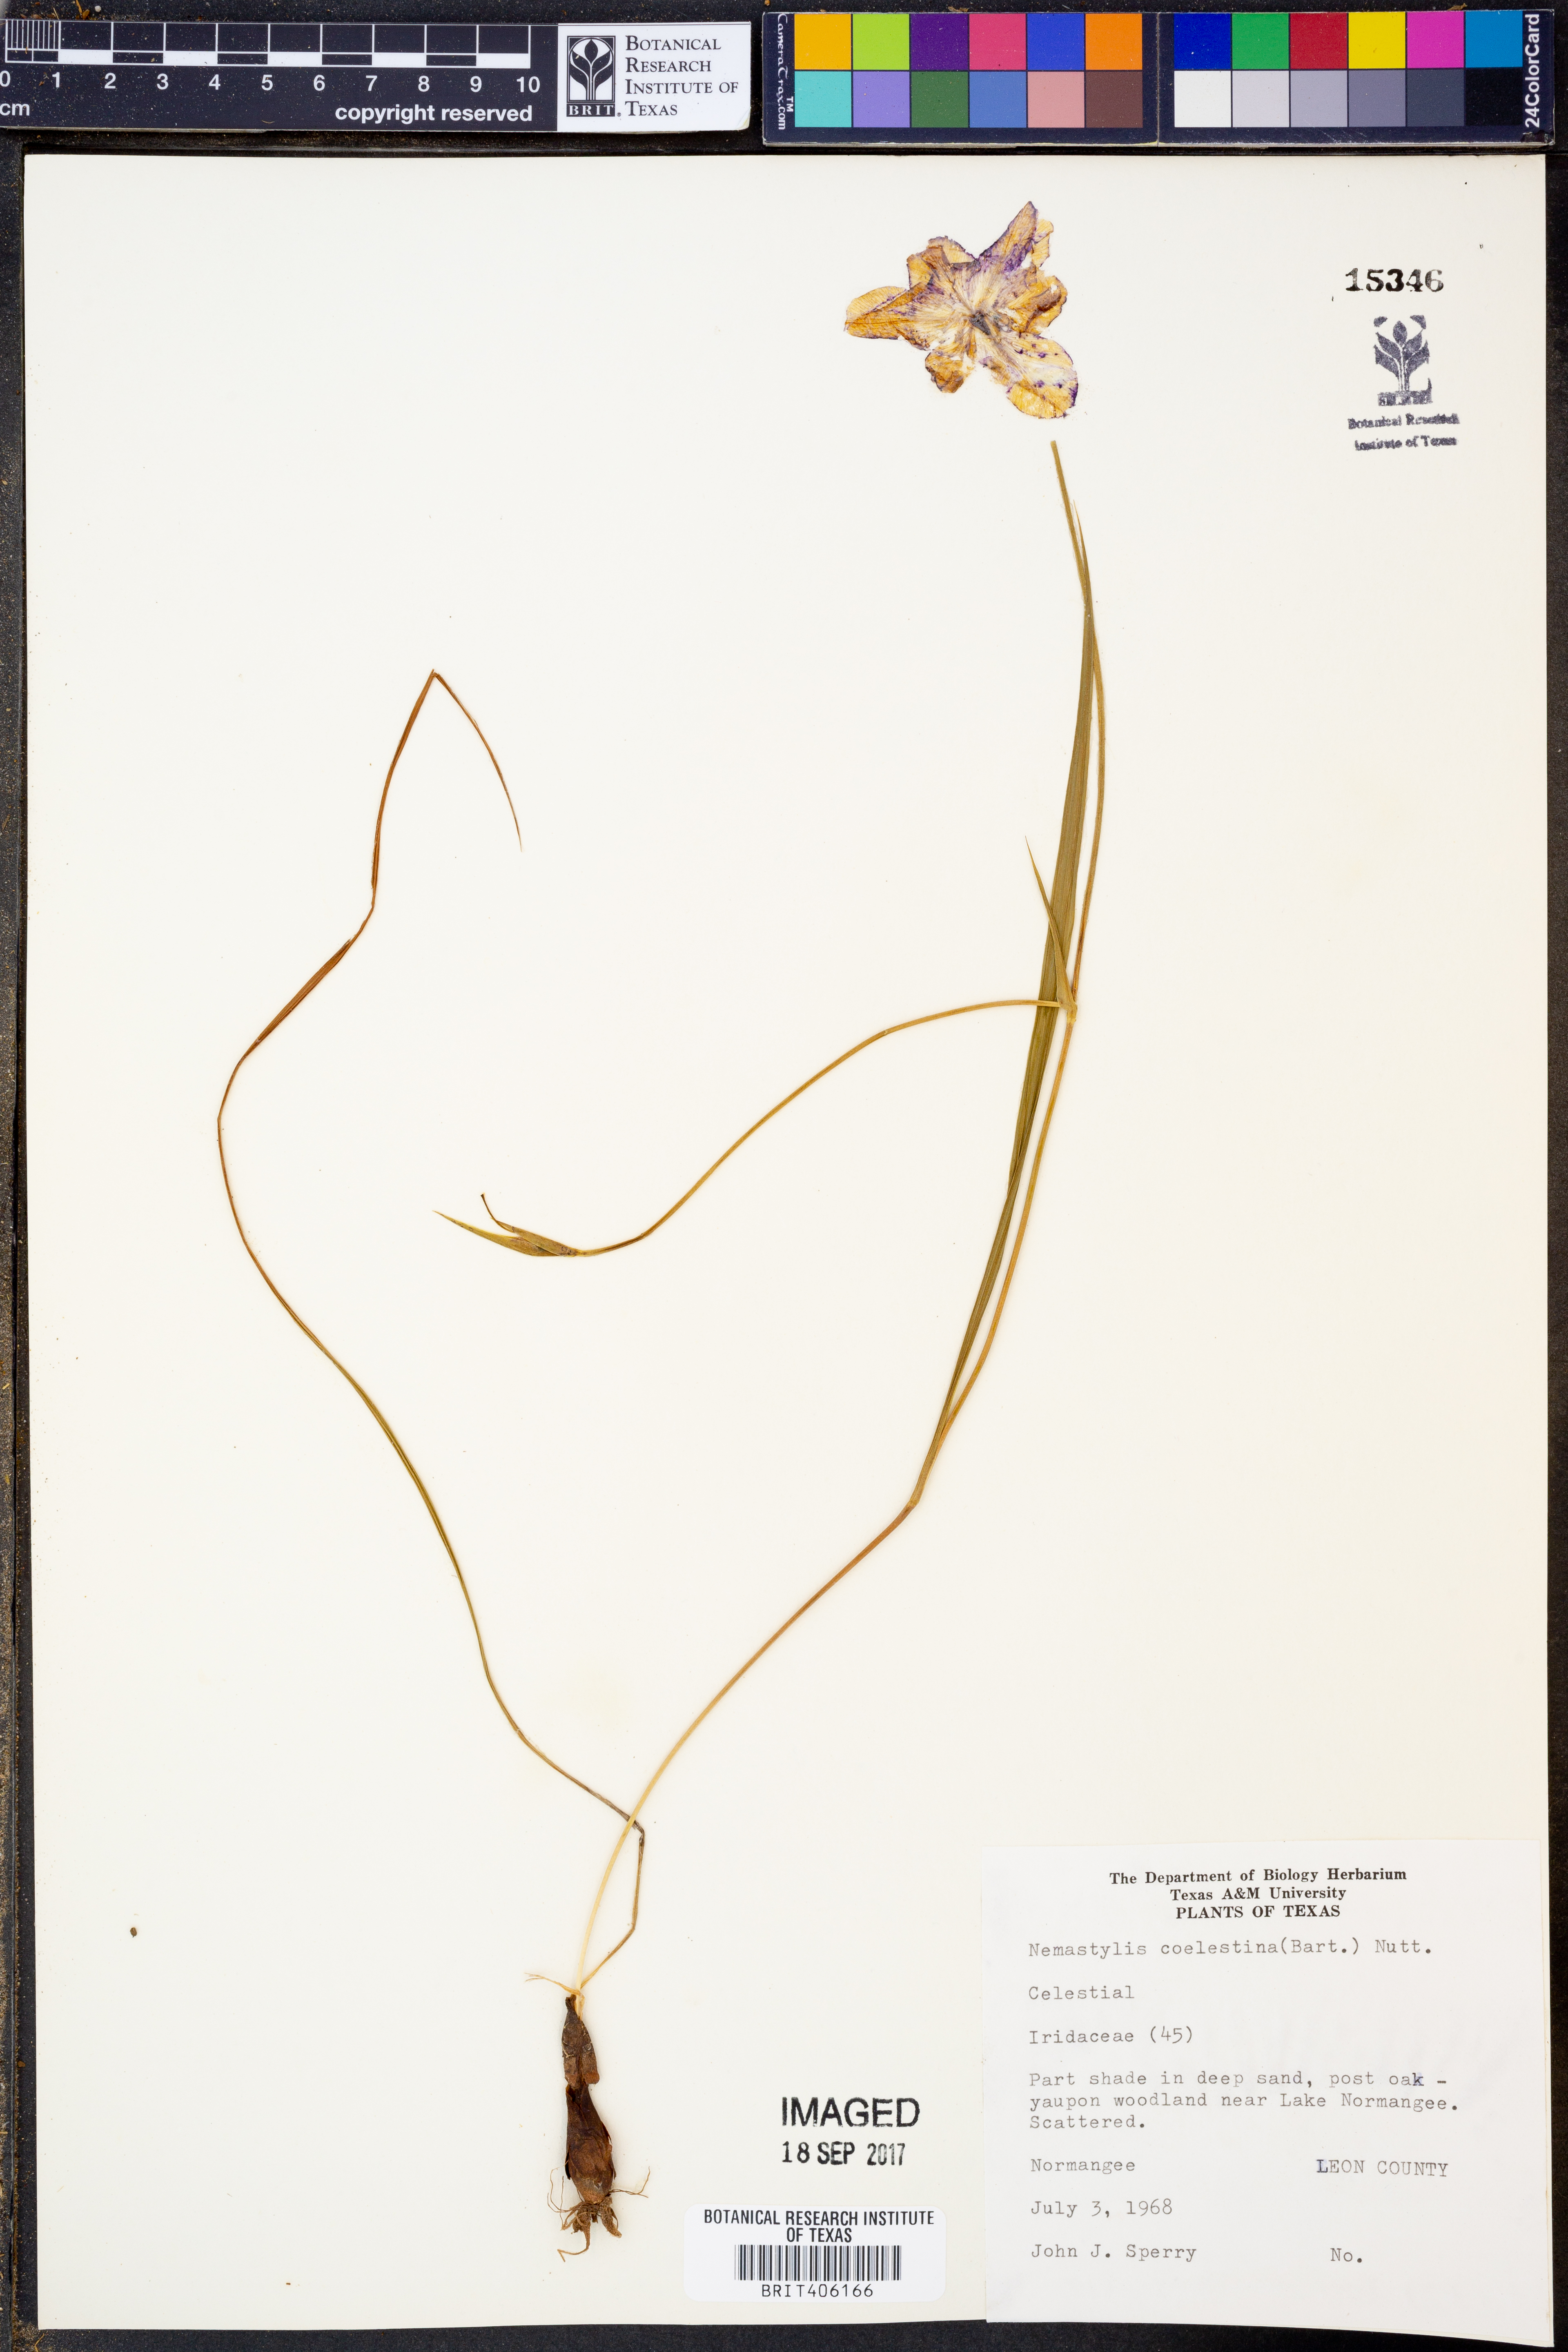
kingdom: Plantae
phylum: Tracheophyta
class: Liliopsida
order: Asparagales
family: Iridaceae
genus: Salpingostylis
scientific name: Salpingostylis coelestina
